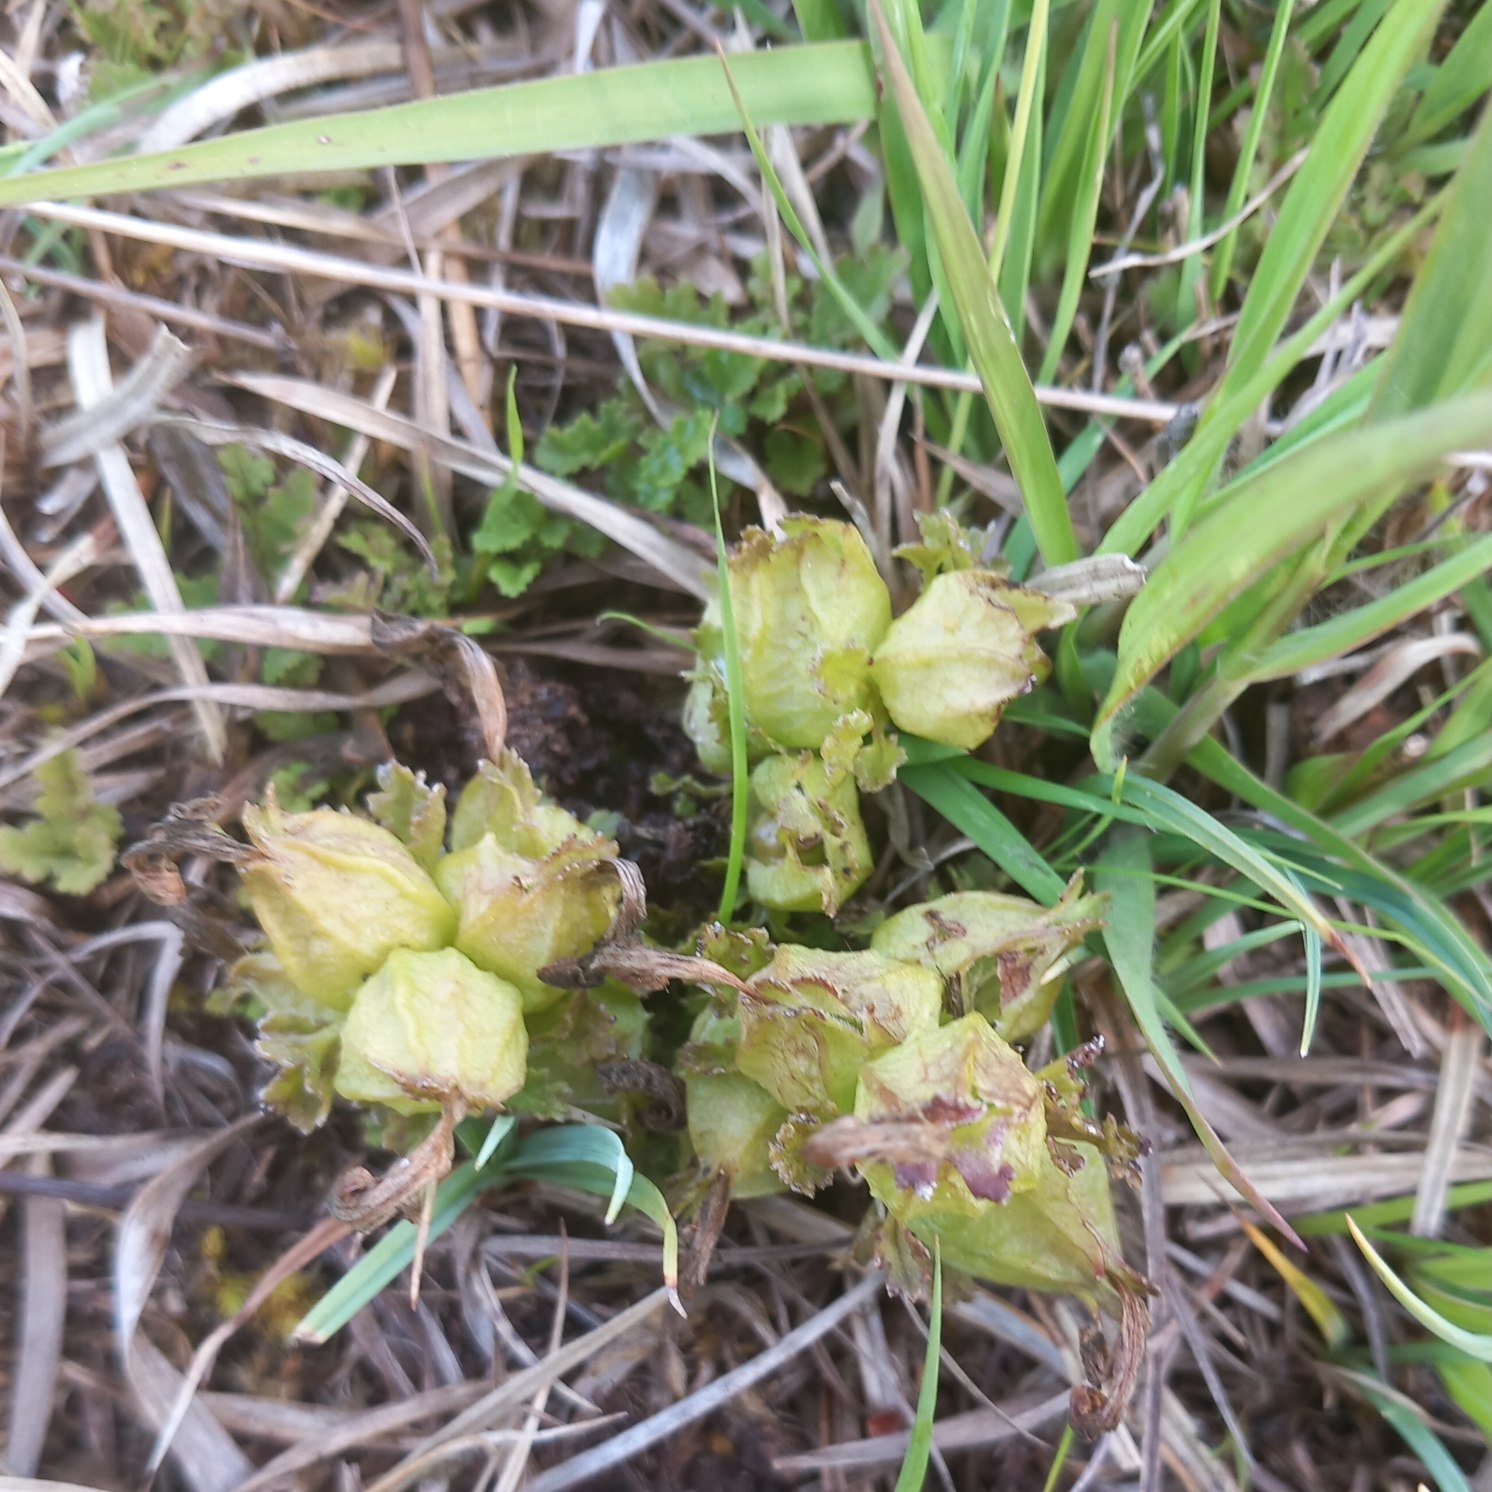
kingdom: Plantae
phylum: Tracheophyta
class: Magnoliopsida
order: Lamiales
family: Orobanchaceae
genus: Pedicularis
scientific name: Pedicularis sylvatica
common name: Mose-troldurt
